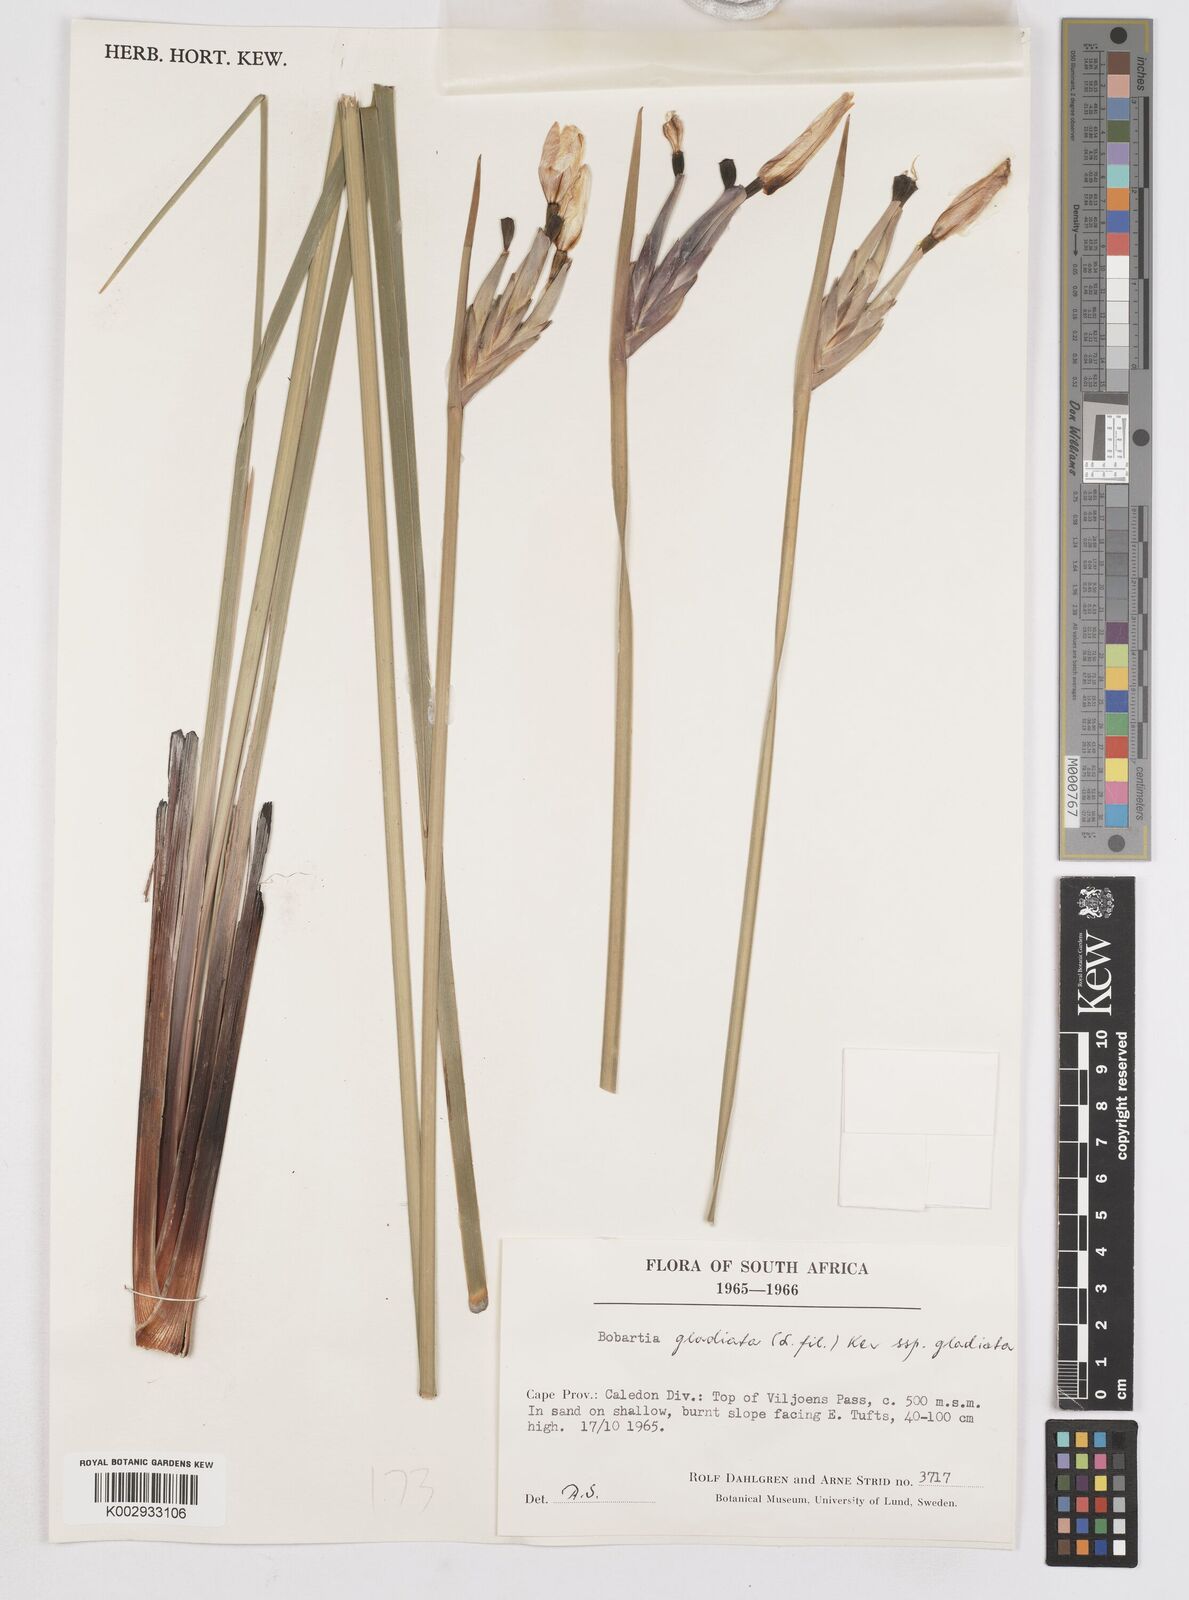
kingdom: Plantae
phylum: Tracheophyta
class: Liliopsida
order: Asparagales
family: Iridaceae
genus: Bobartia
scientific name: Bobartia gladiata
